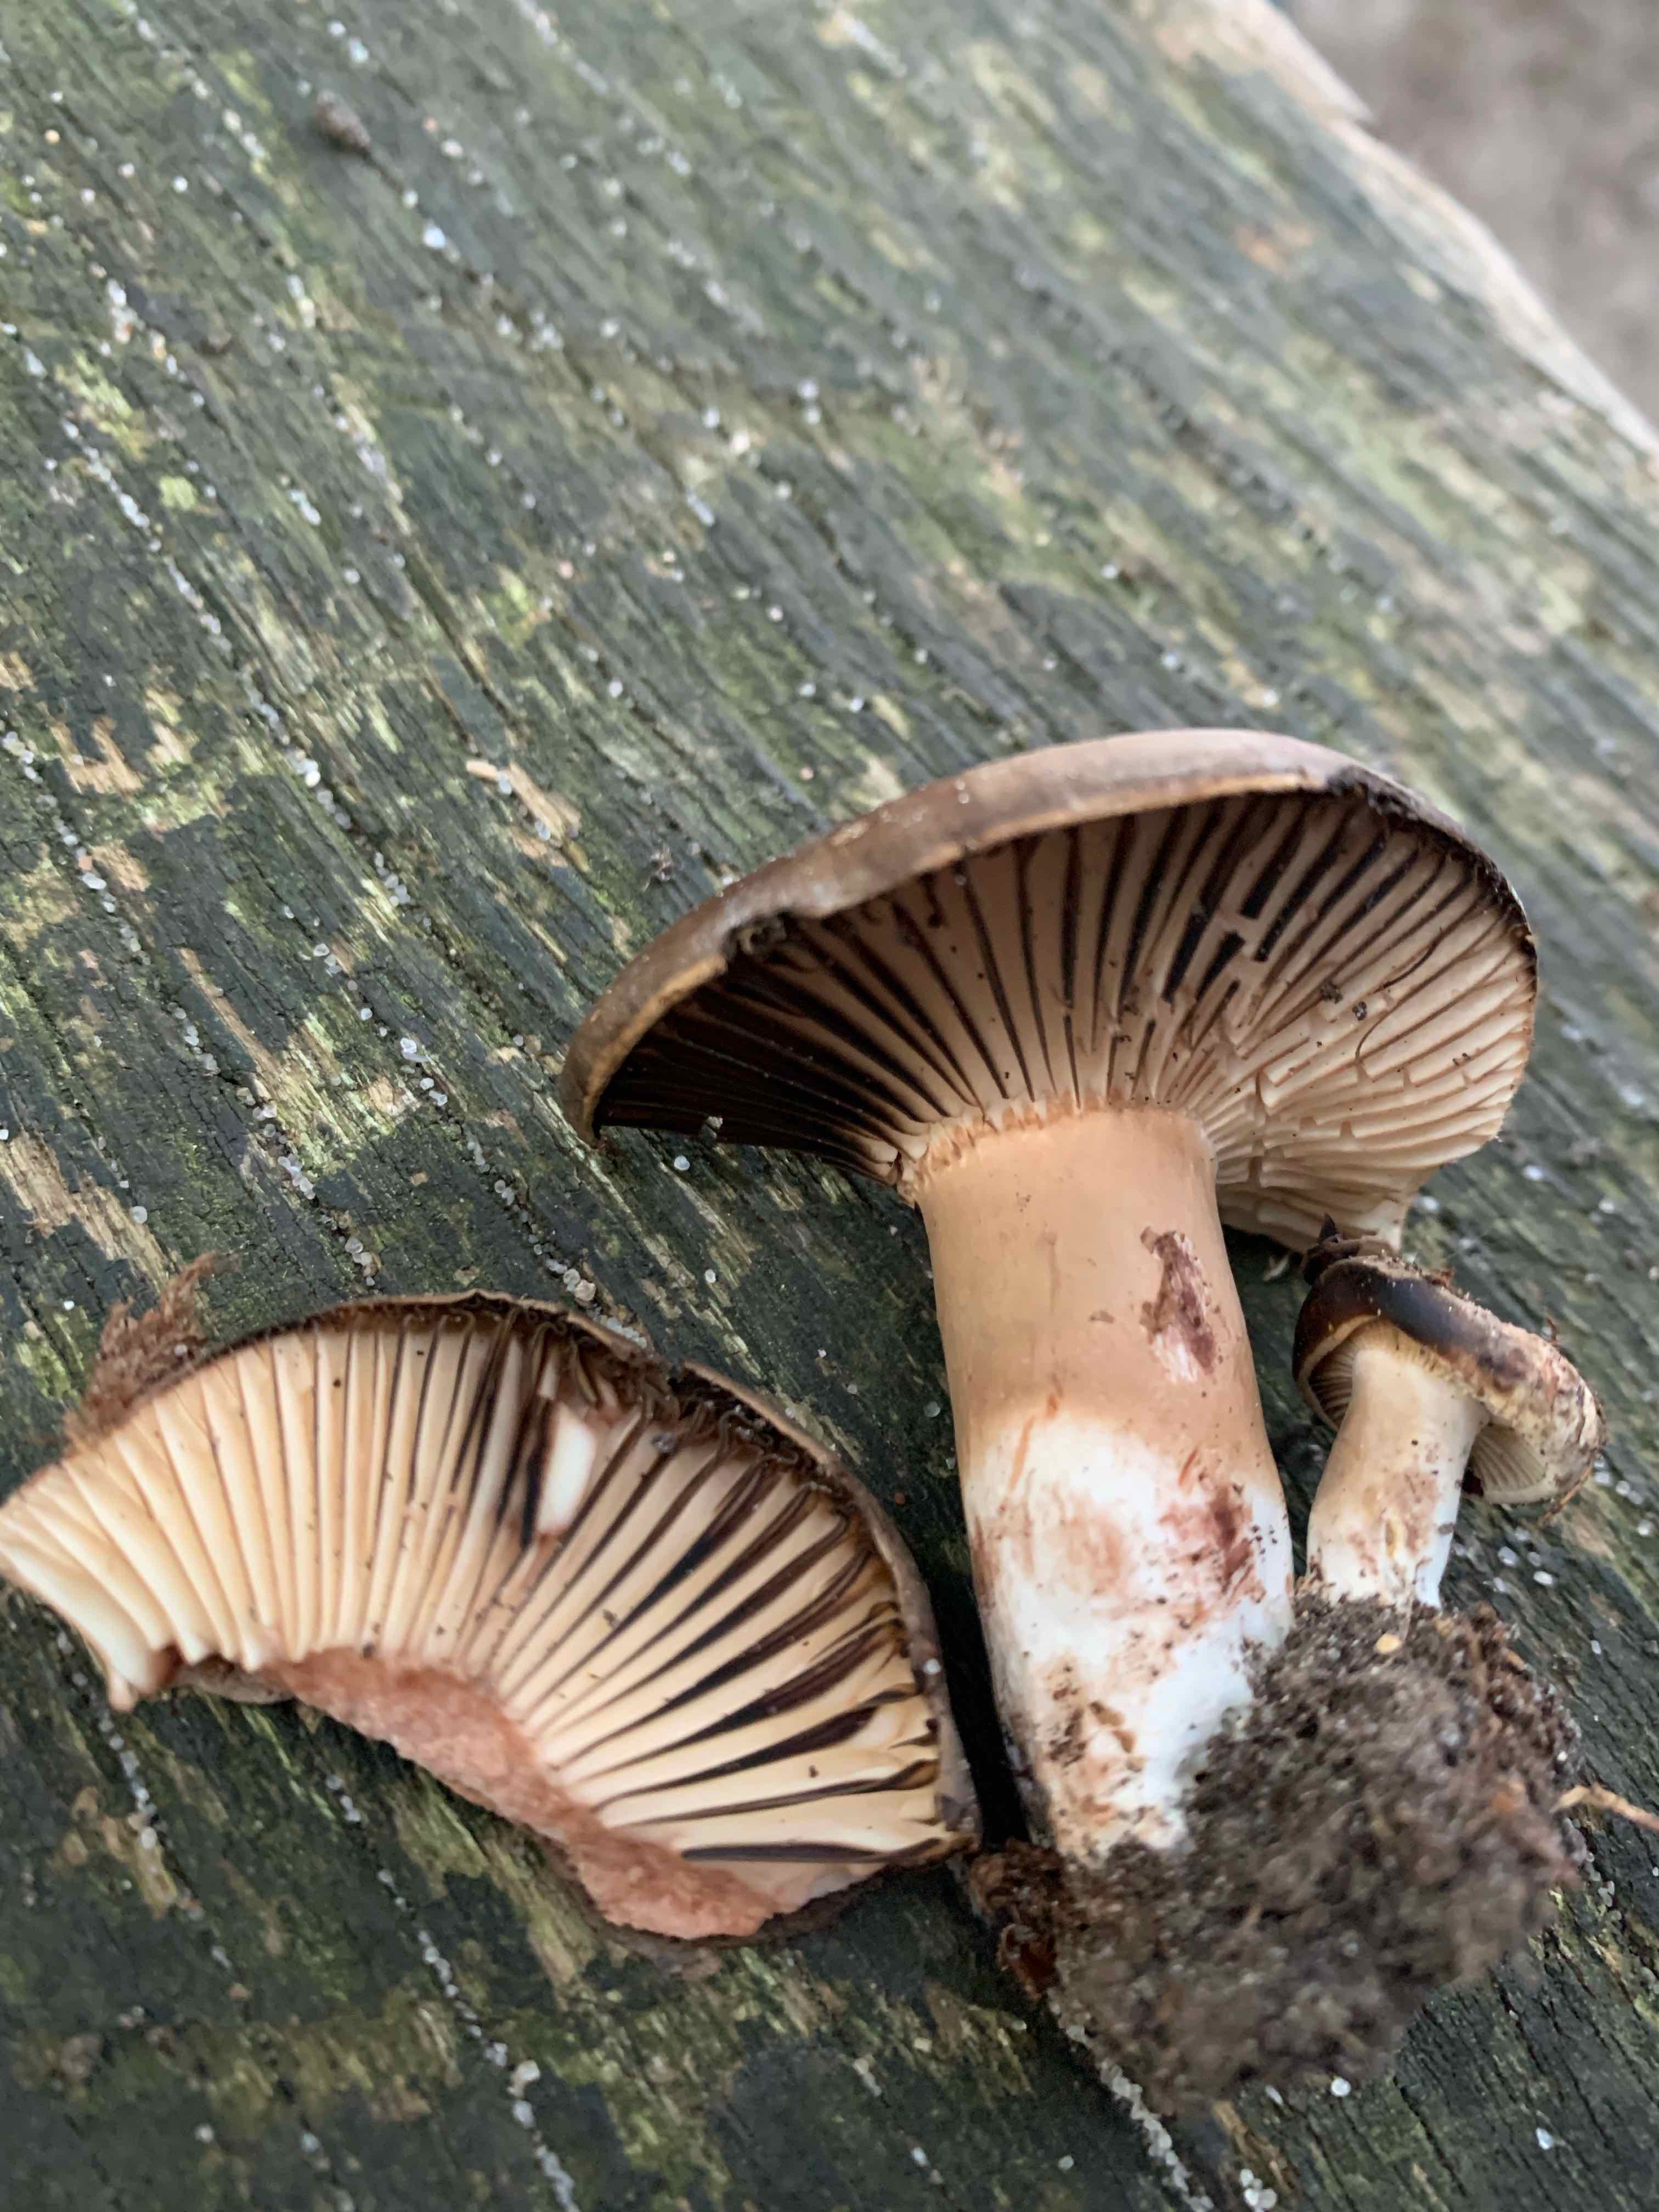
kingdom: Fungi
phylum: Basidiomycota
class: Agaricomycetes
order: Russulales
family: Russulaceae
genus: Russula
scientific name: Russula adusta
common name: sværtende skørhat
